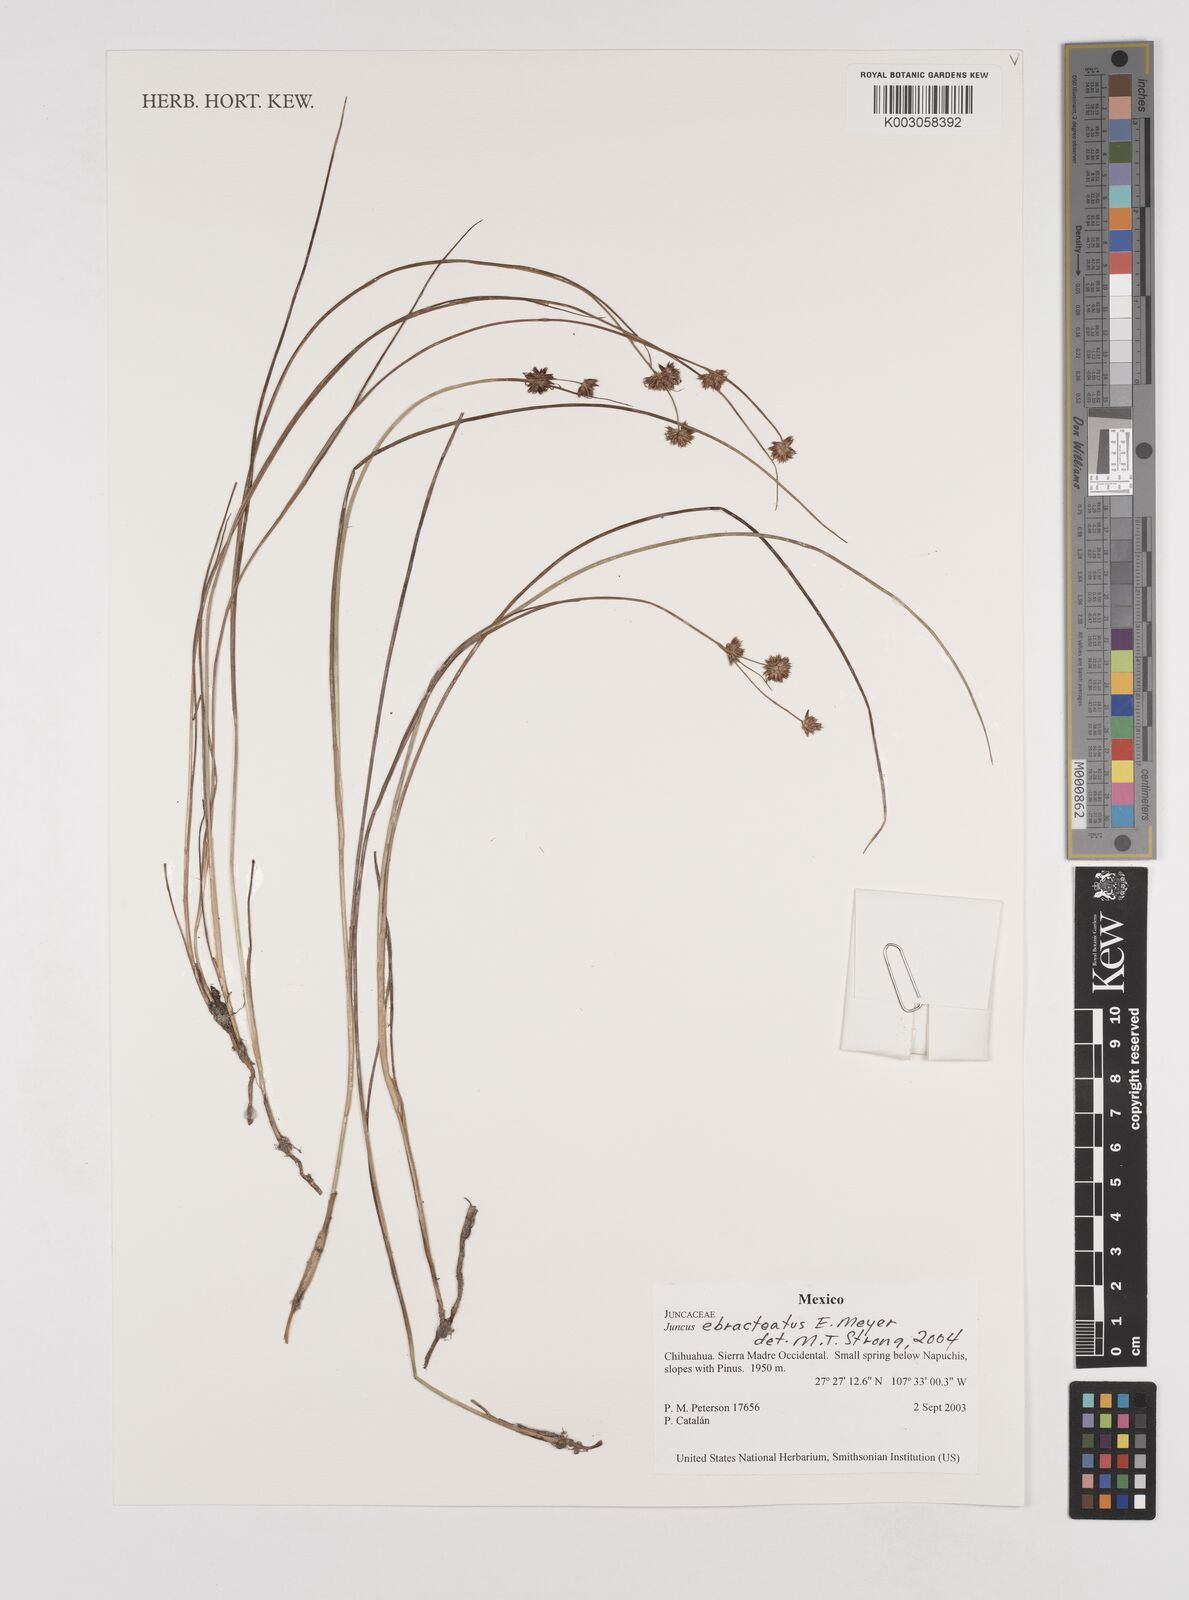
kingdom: Plantae
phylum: Tracheophyta
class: Liliopsida
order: Poales
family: Juncaceae
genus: Juncus
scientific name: Juncus ebracteatus
